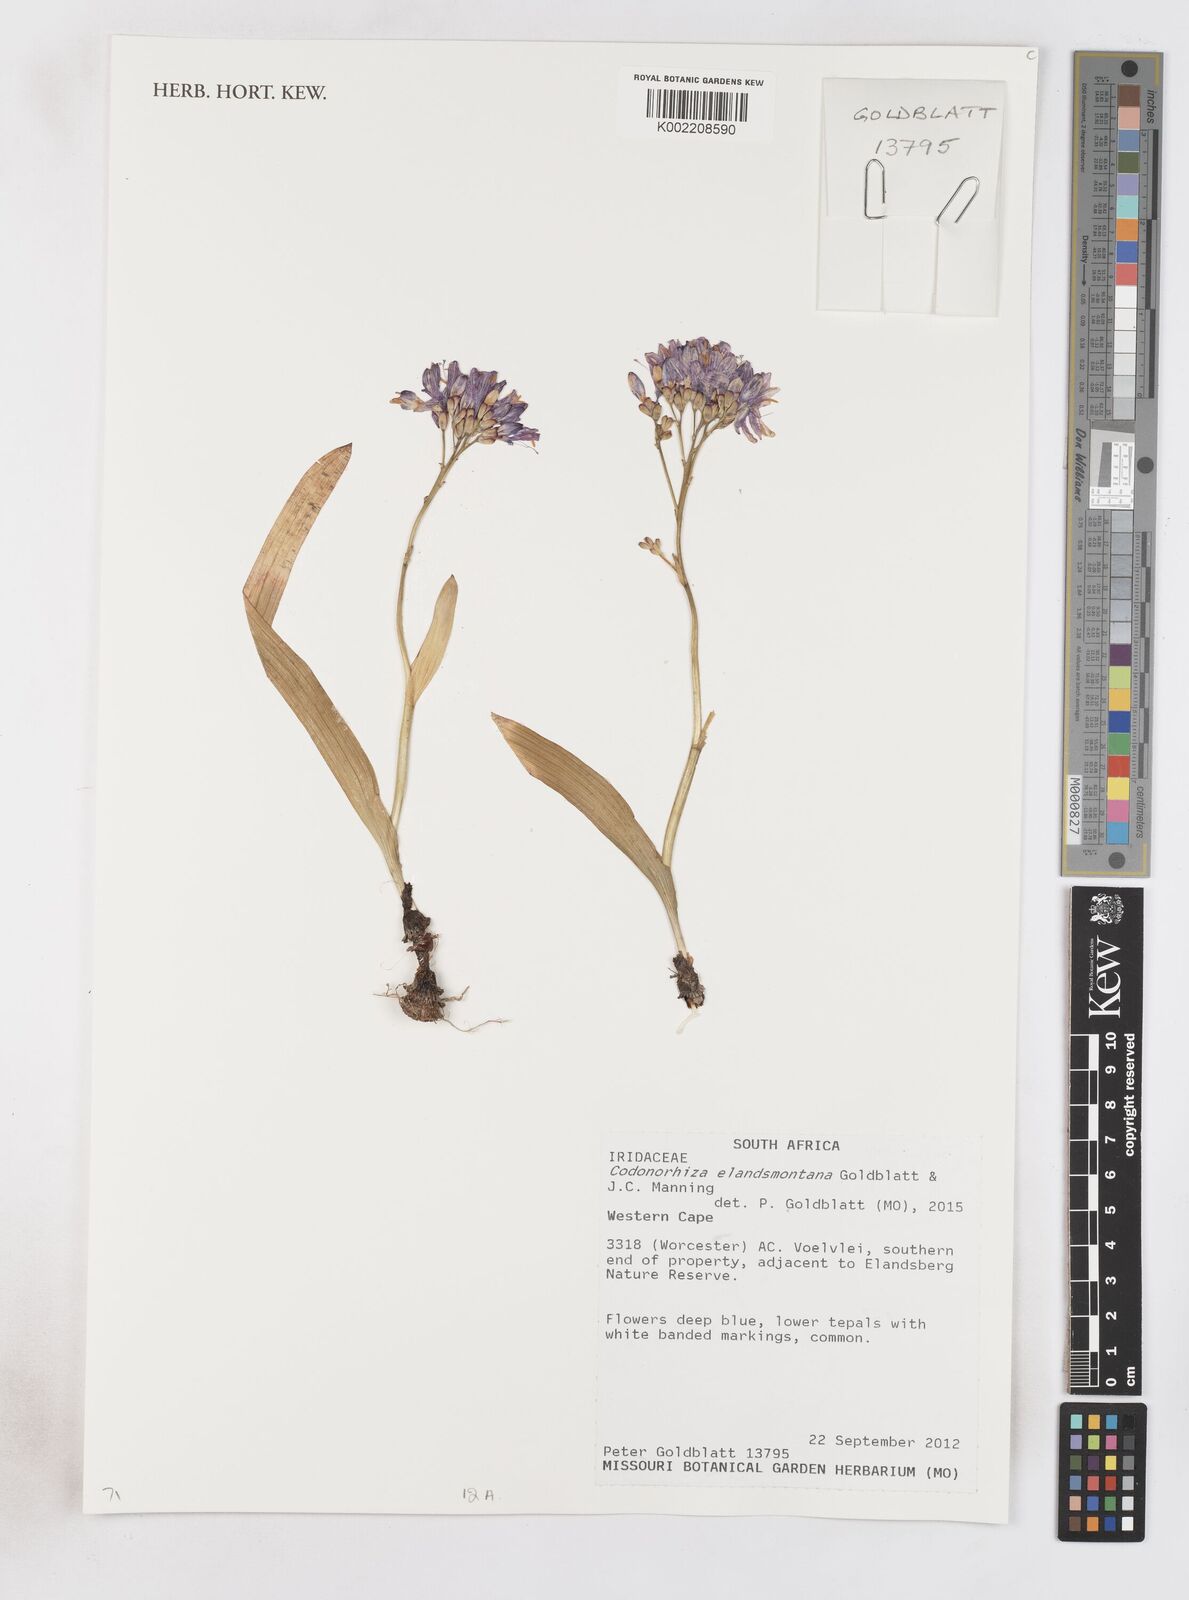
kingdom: Plantae
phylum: Tracheophyta
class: Liliopsida
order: Asparagales
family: Iridaceae
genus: Lapeirousia
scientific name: Lapeirousia
